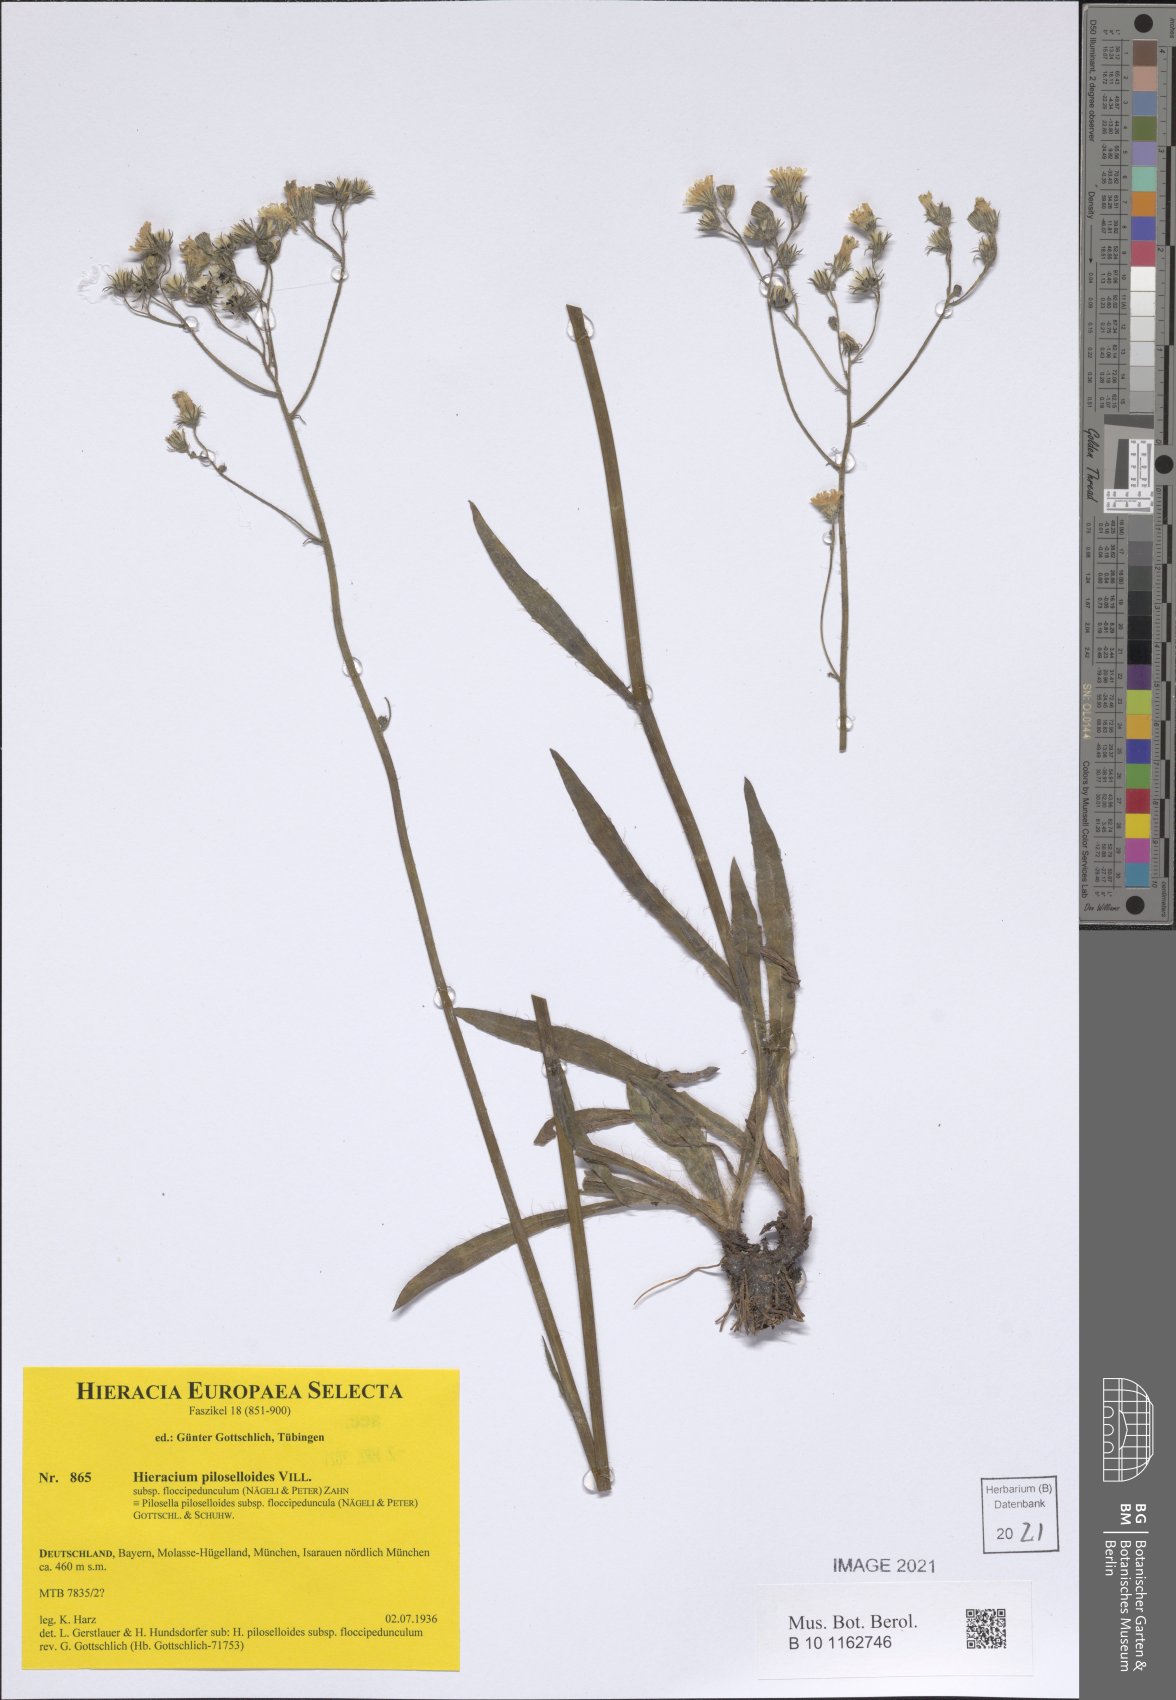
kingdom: Plantae
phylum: Tracheophyta
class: Magnoliopsida
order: Asterales
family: Asteraceae
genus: Pilosella
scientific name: Pilosella piloselloides
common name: Glaucous king-devil
